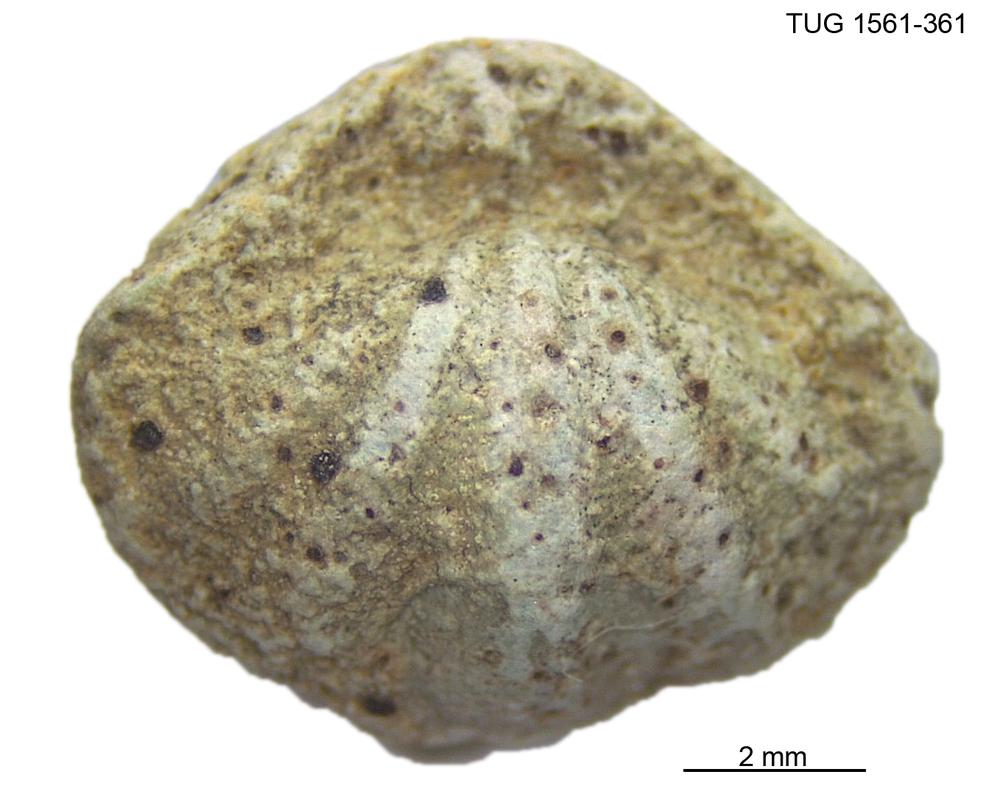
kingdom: Animalia
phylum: Brachiopoda
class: Rhynchonellata
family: Hesperorthidae
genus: Ptychopleurella
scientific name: Ptychopleurella Orthis bouchardi
